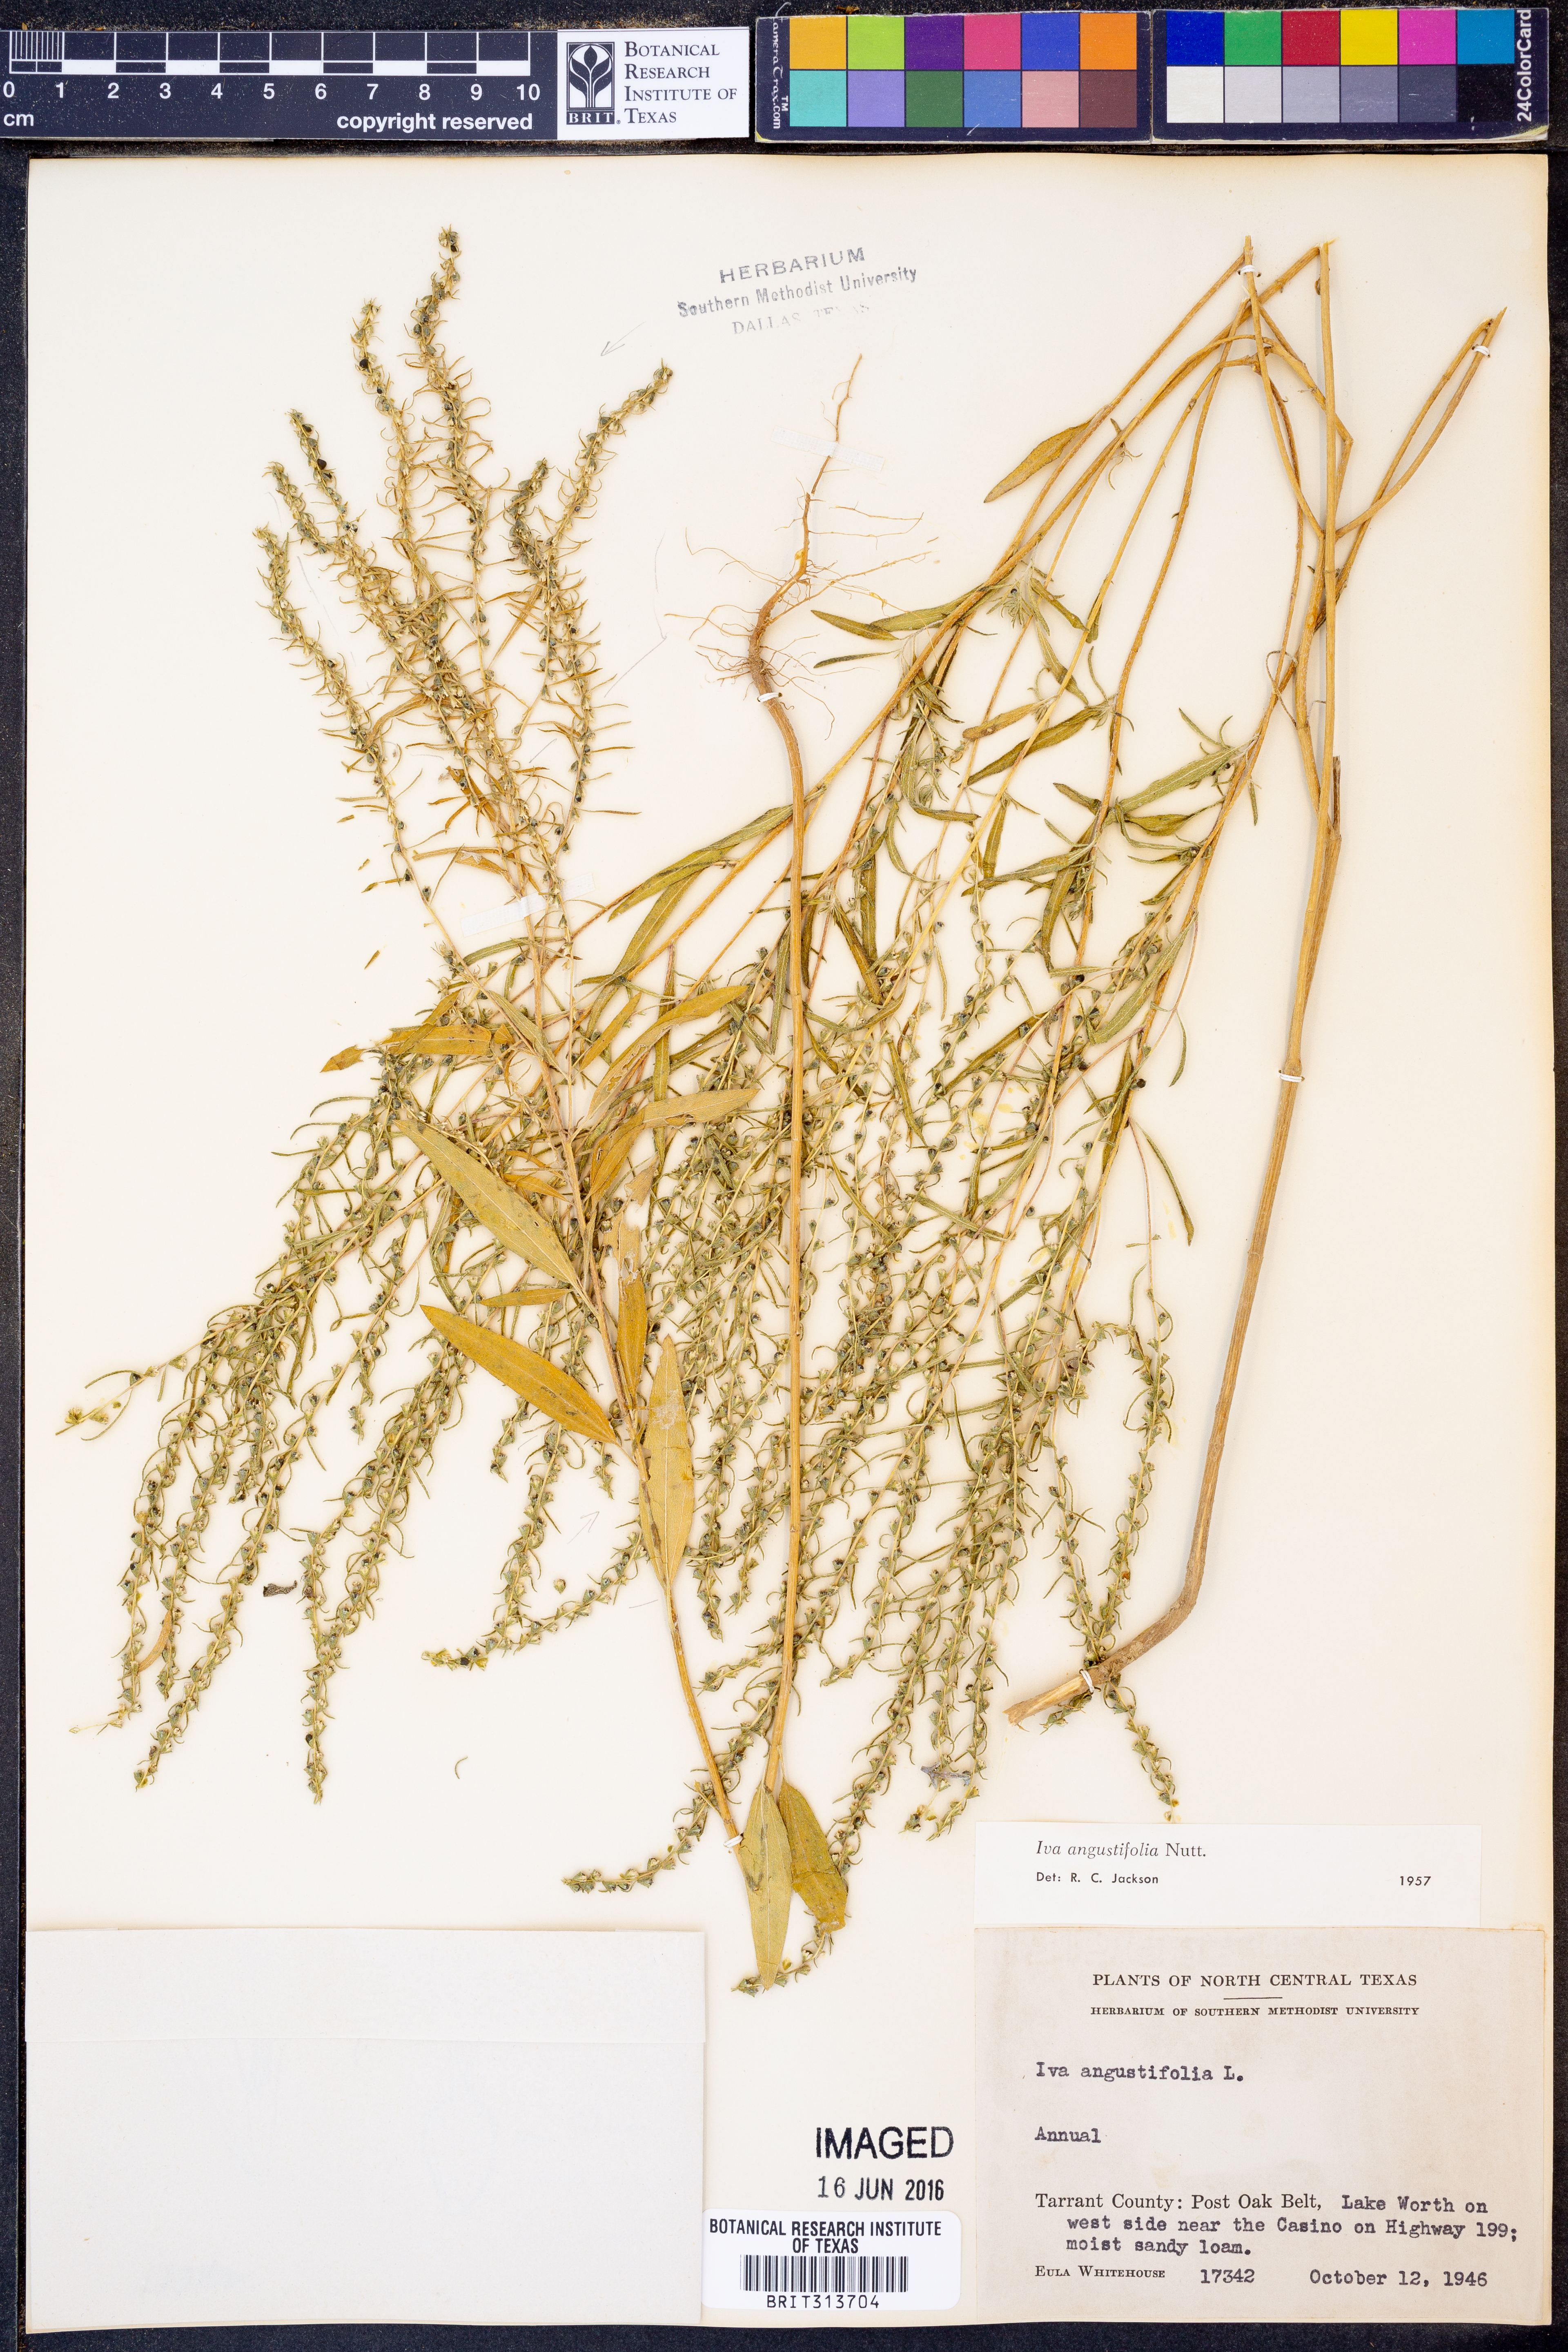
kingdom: Plantae
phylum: Tracheophyta
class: Magnoliopsida
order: Asterales
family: Asteraceae
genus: Iva
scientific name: Iva asperifolia
